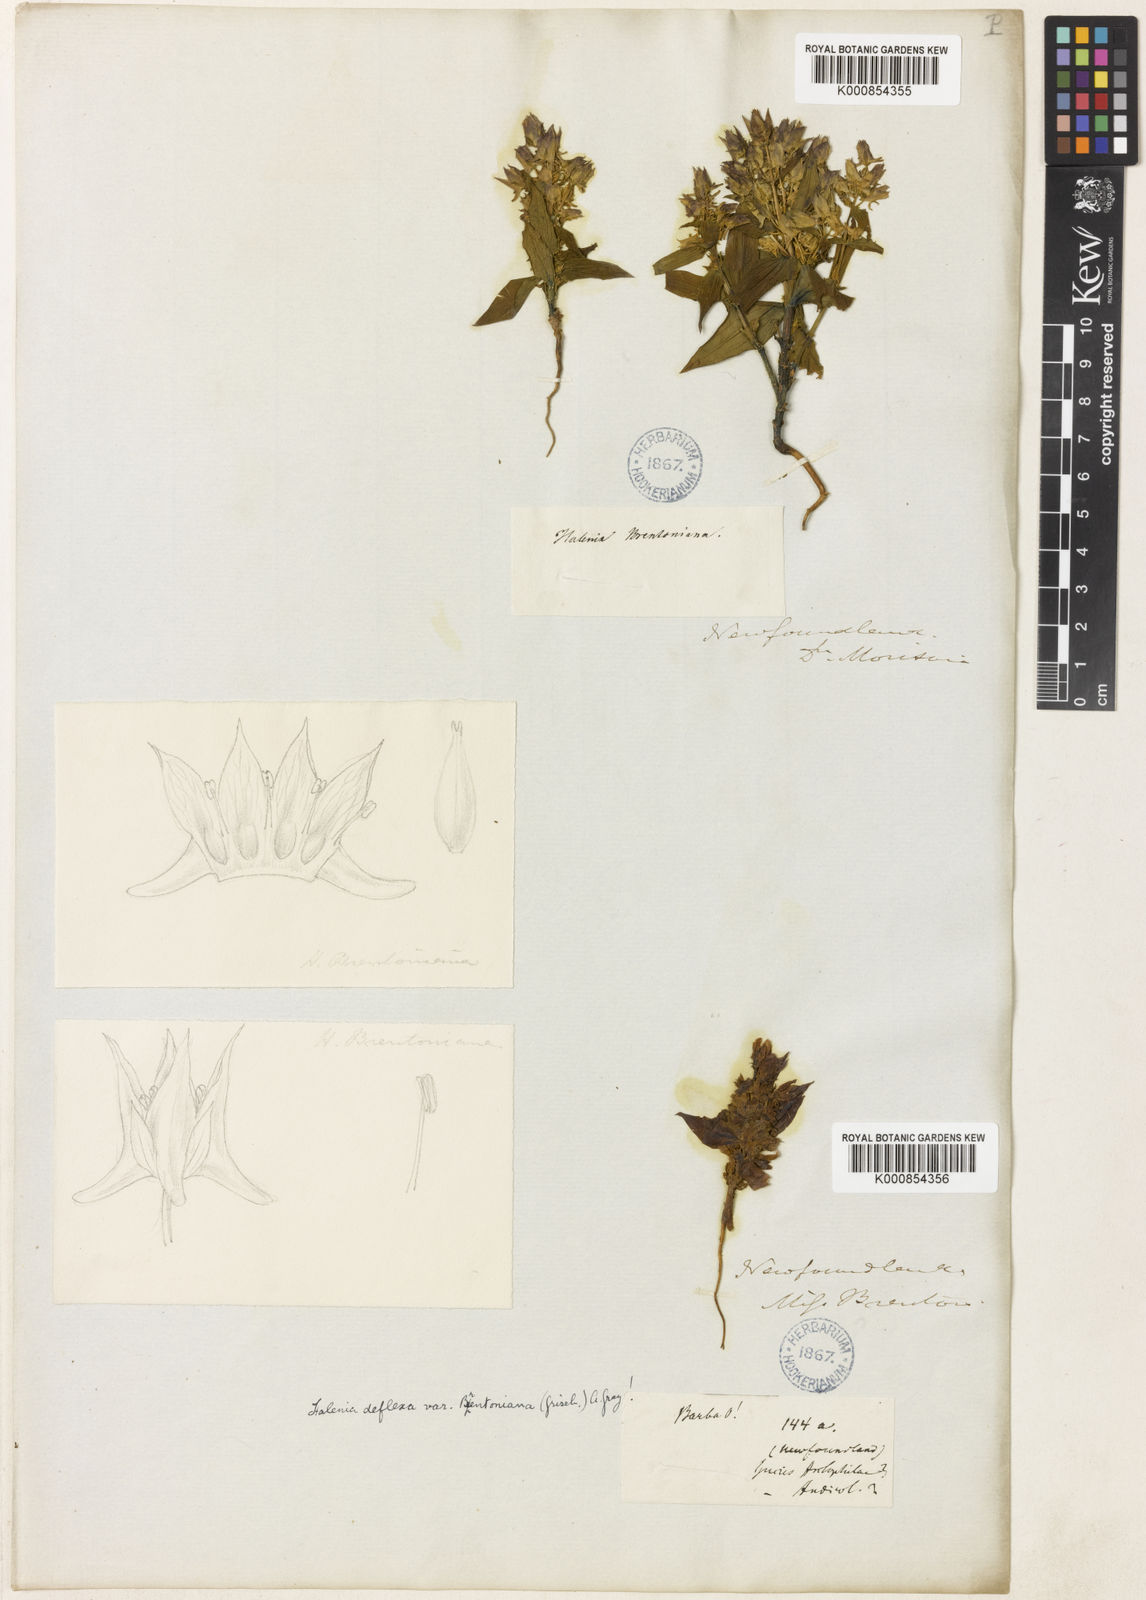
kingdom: Plantae
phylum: Tracheophyta
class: Magnoliopsida
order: Gentianales
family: Gentianaceae
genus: Halenia
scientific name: Halenia deflexa
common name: American spurred gentian
